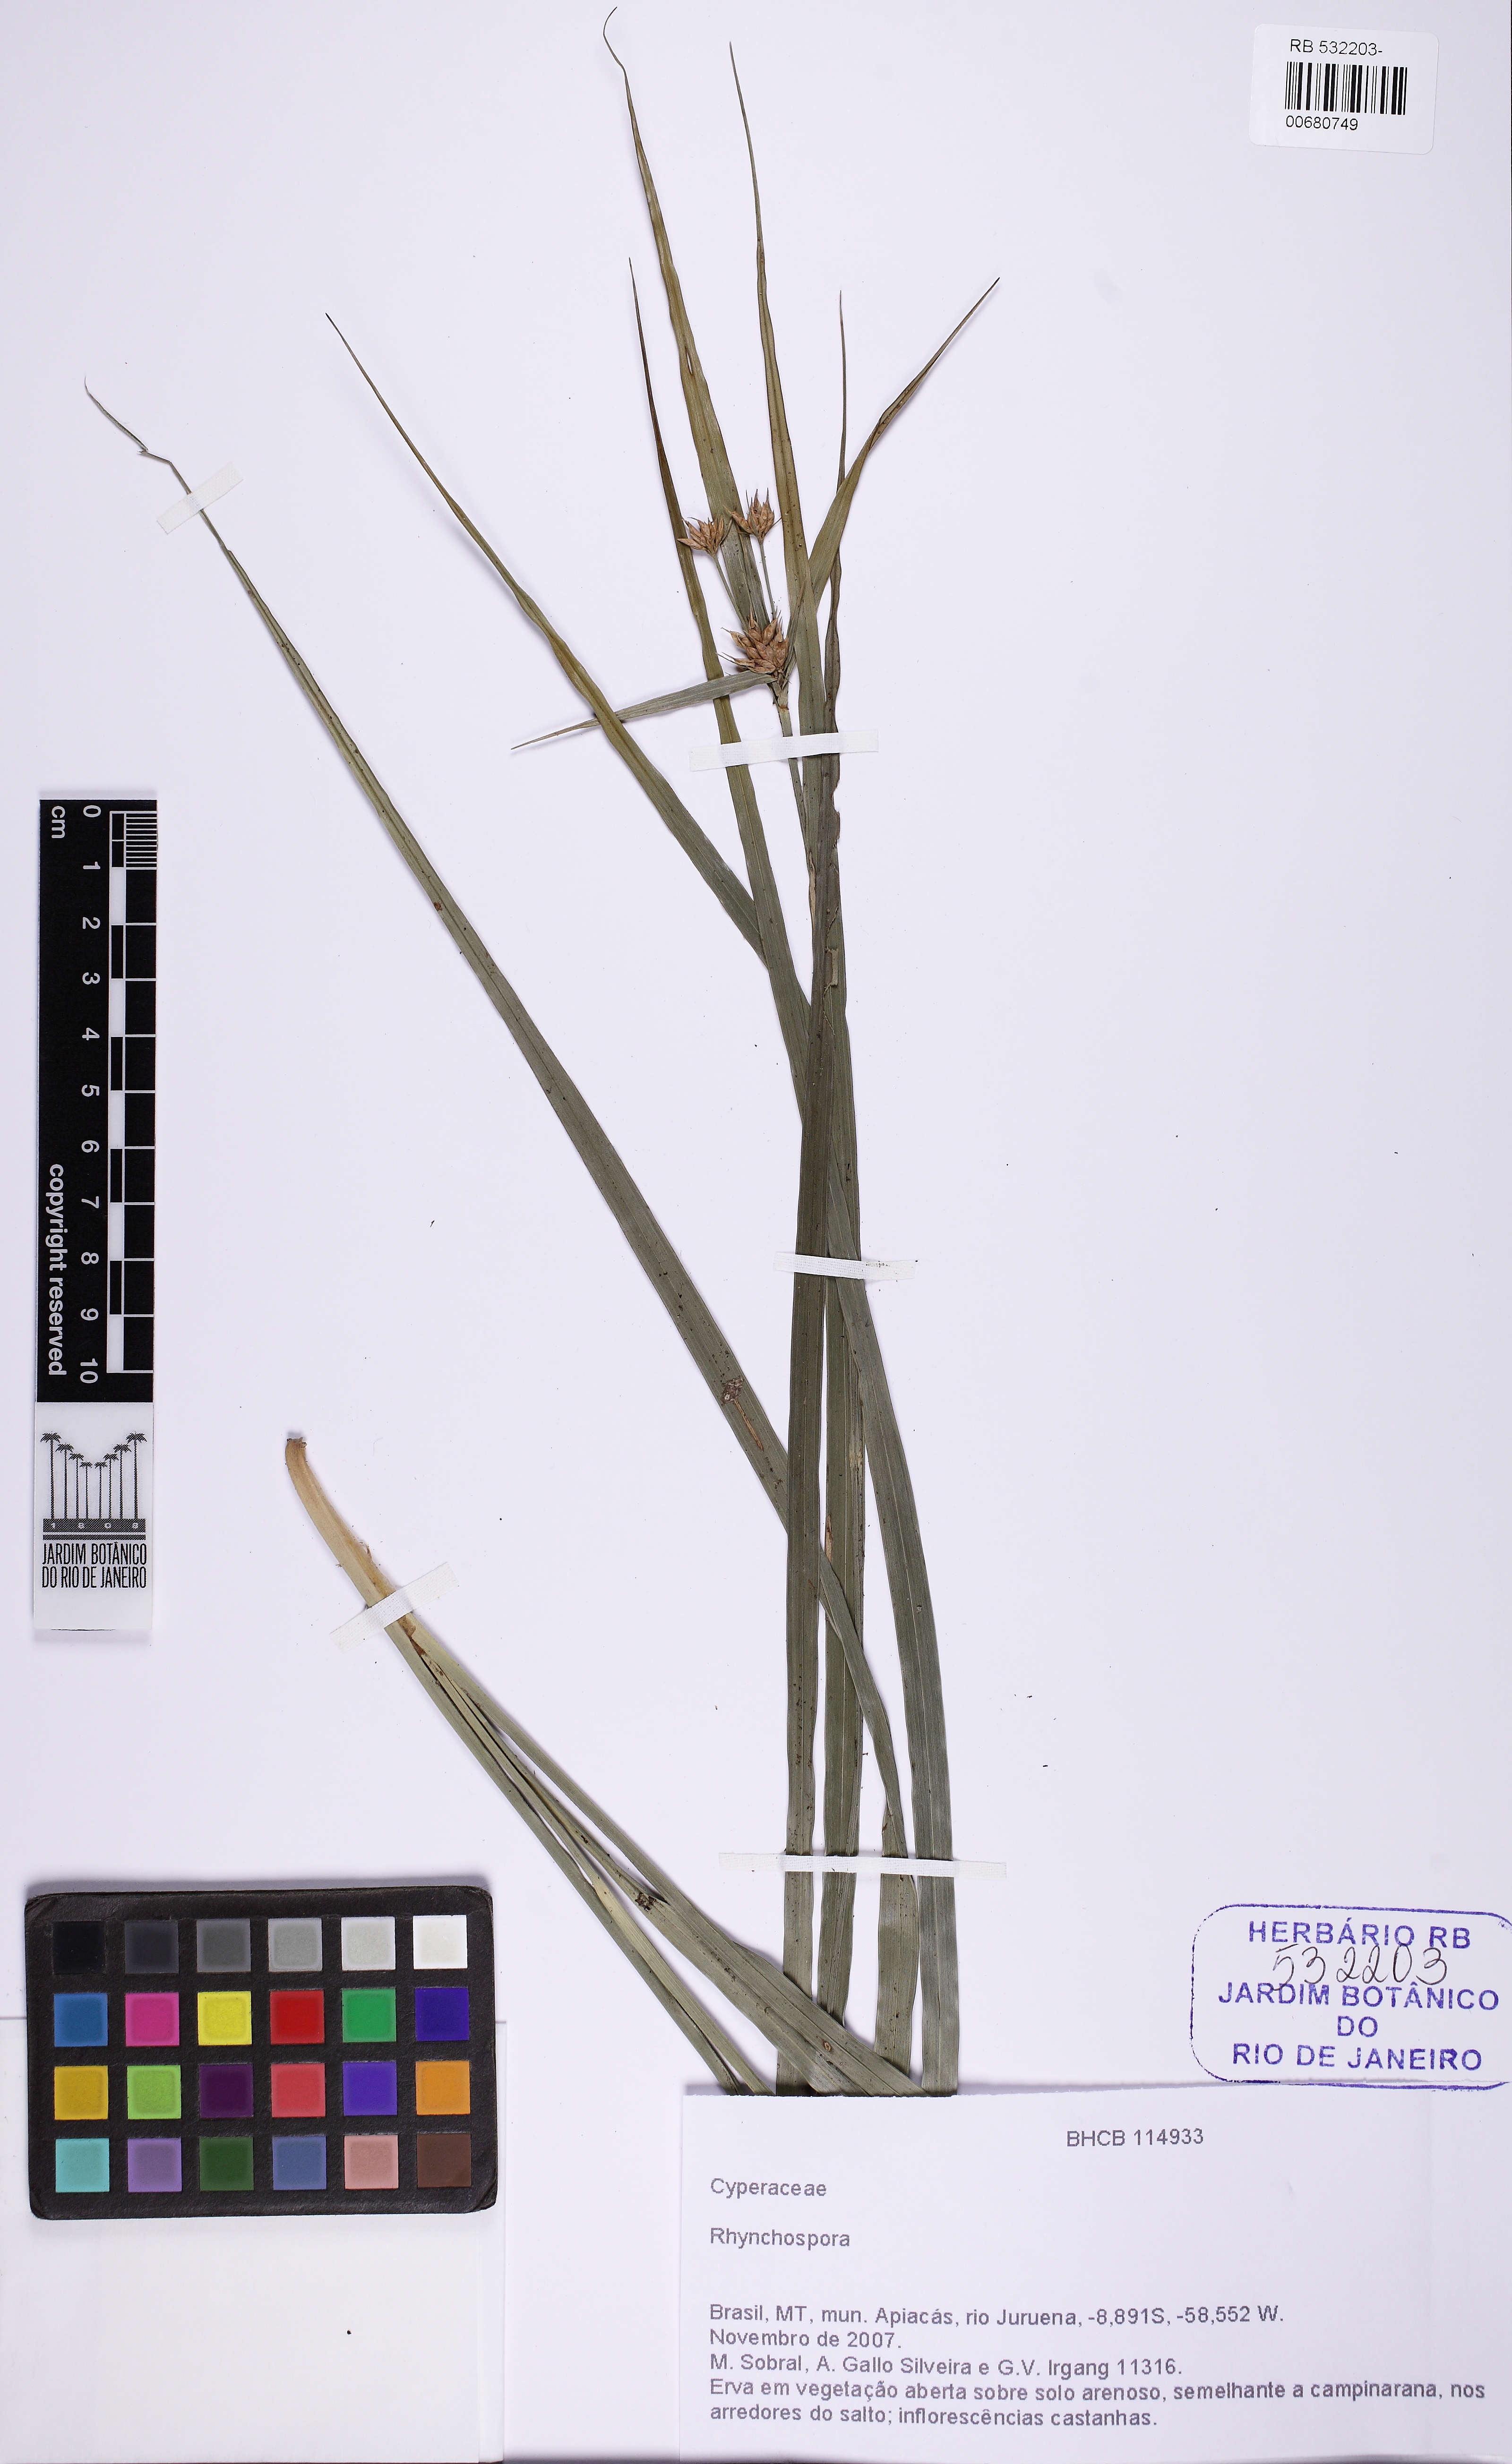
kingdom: Plantae
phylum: Tracheophyta
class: Liliopsida
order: Poales
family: Cyperaceae
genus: Rhynchospora
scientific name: Rhynchospora rionegrensis
